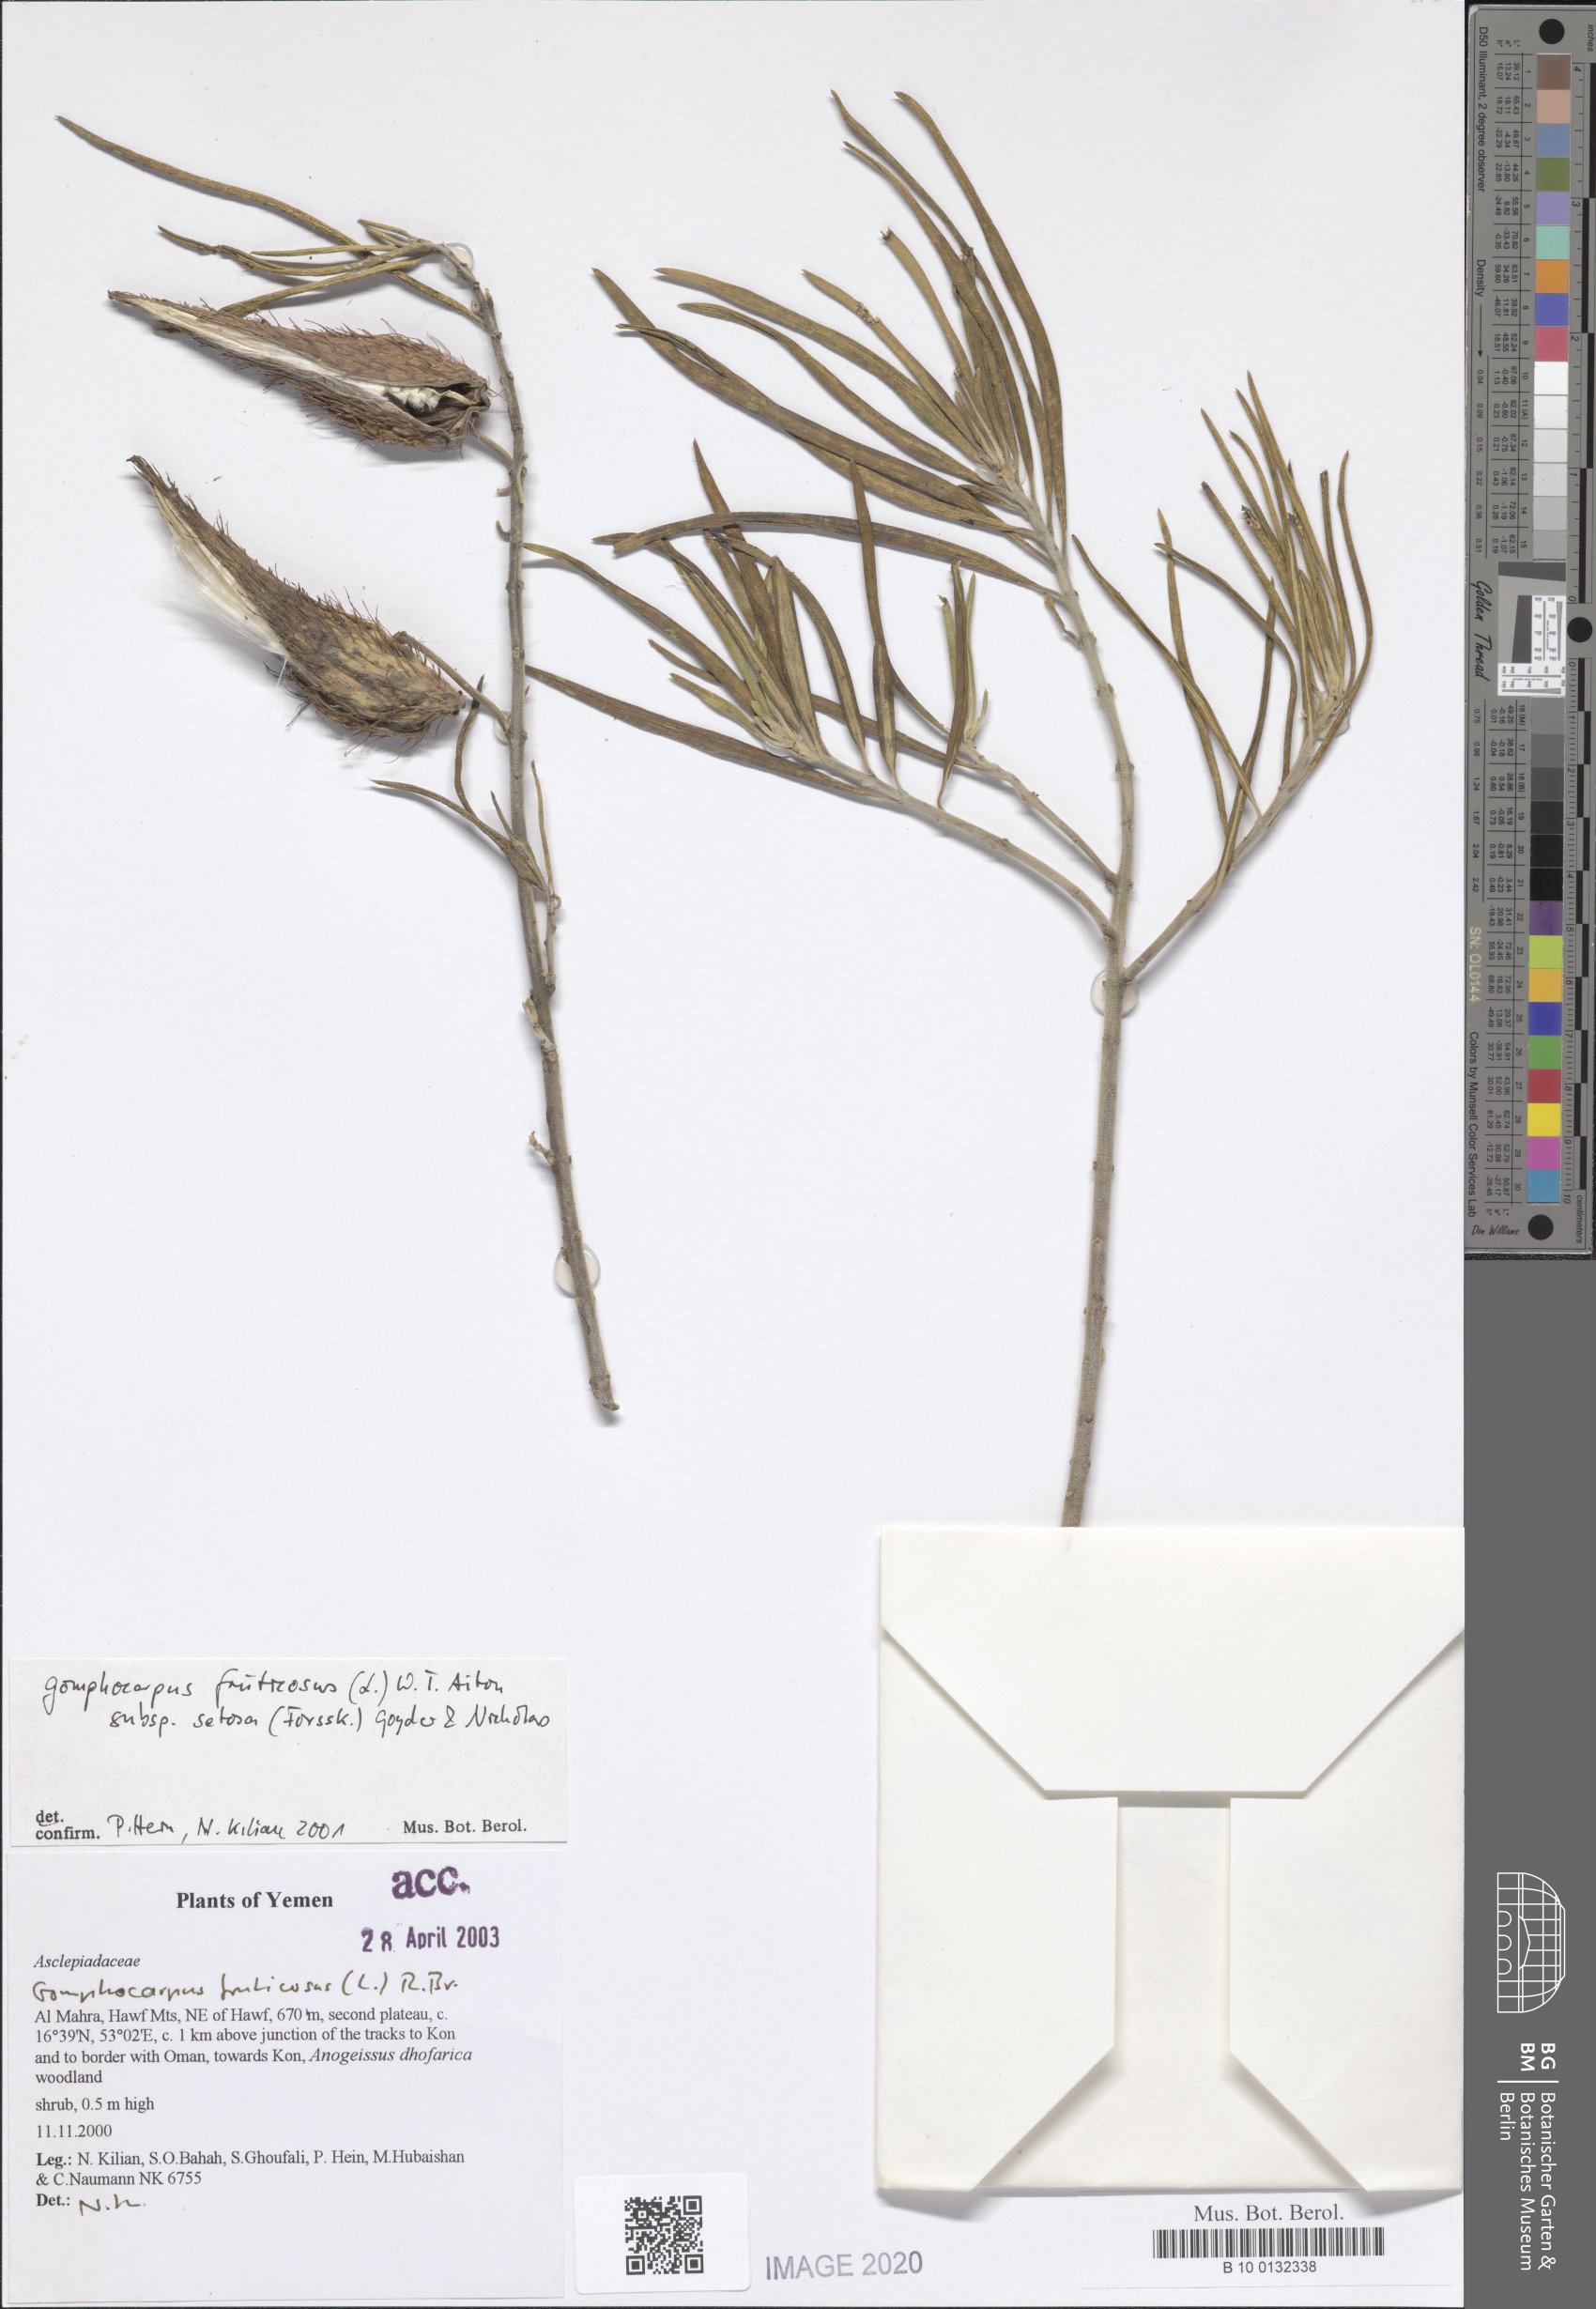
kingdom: Plantae
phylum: Tracheophyta
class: Magnoliopsida
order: Gentianales
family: Apocynaceae
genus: Gomphocarpus
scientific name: Gomphocarpus fruticosus
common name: Milkweed
